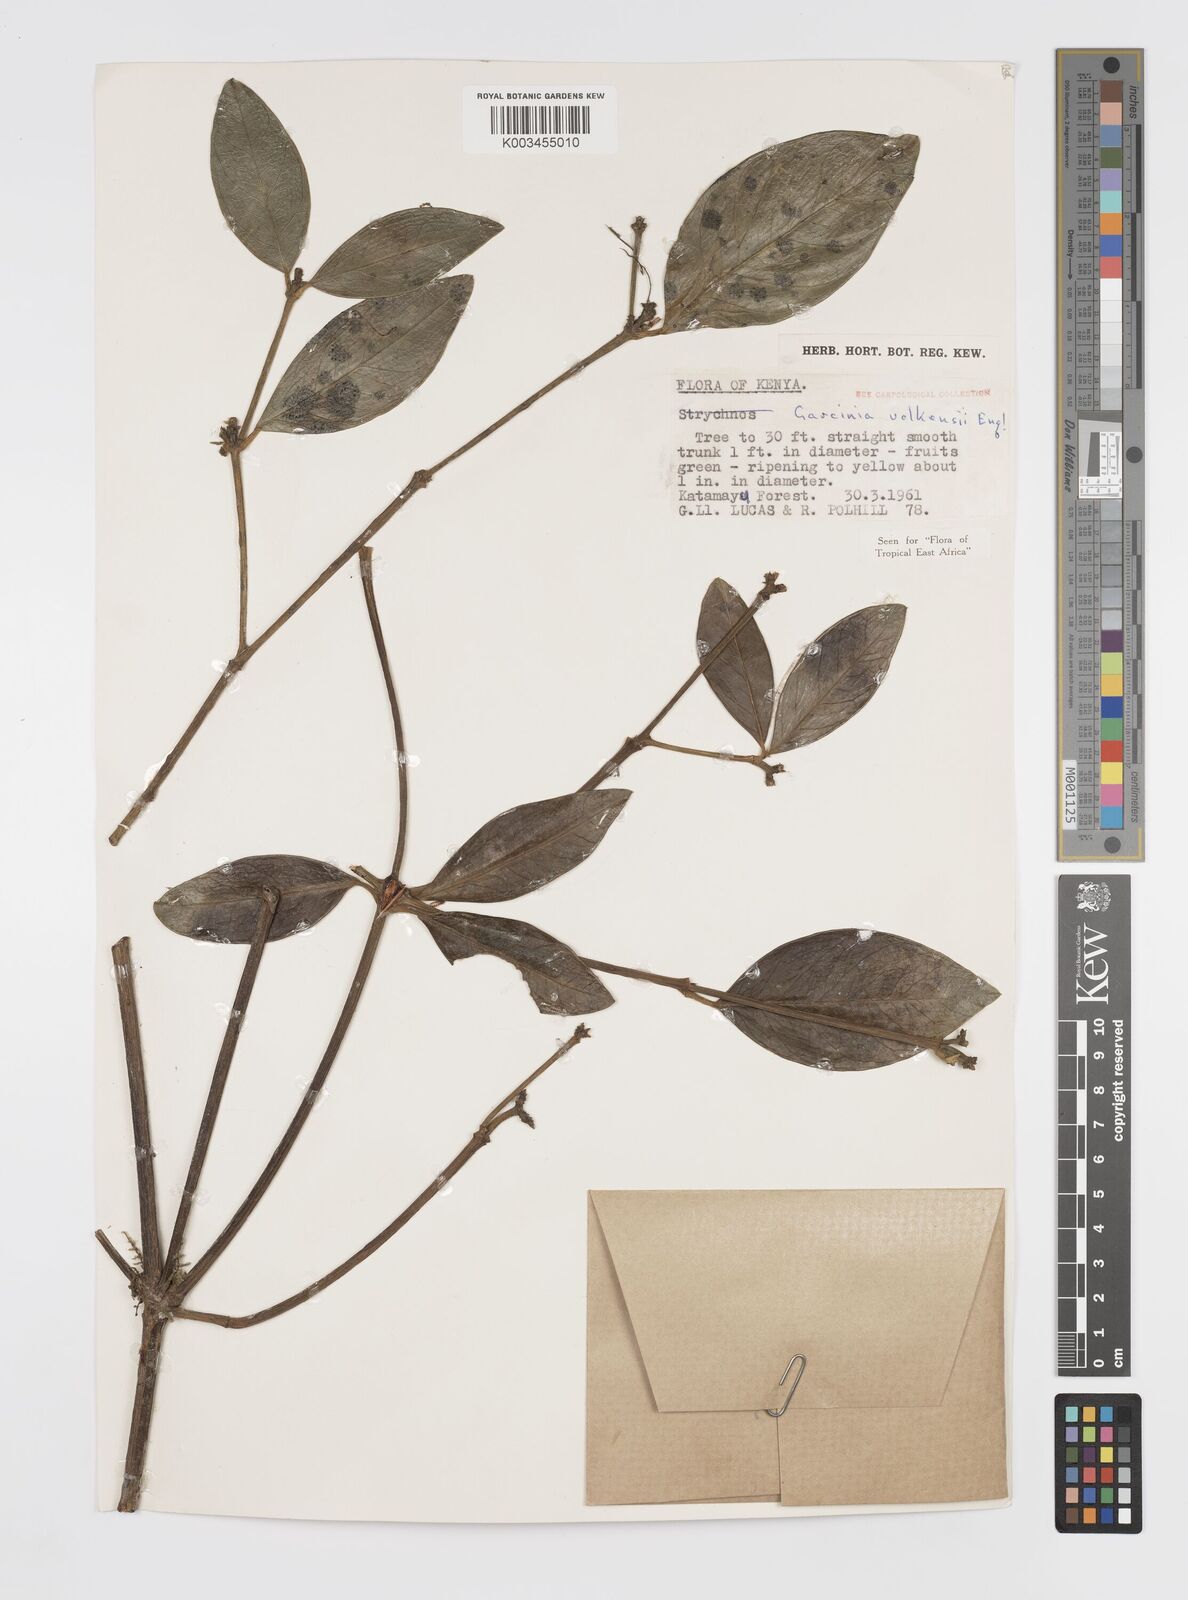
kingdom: Plantae
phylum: Tracheophyta
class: Magnoliopsida
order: Malpighiales
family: Clusiaceae
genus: Garcinia
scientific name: Garcinia volkensii
